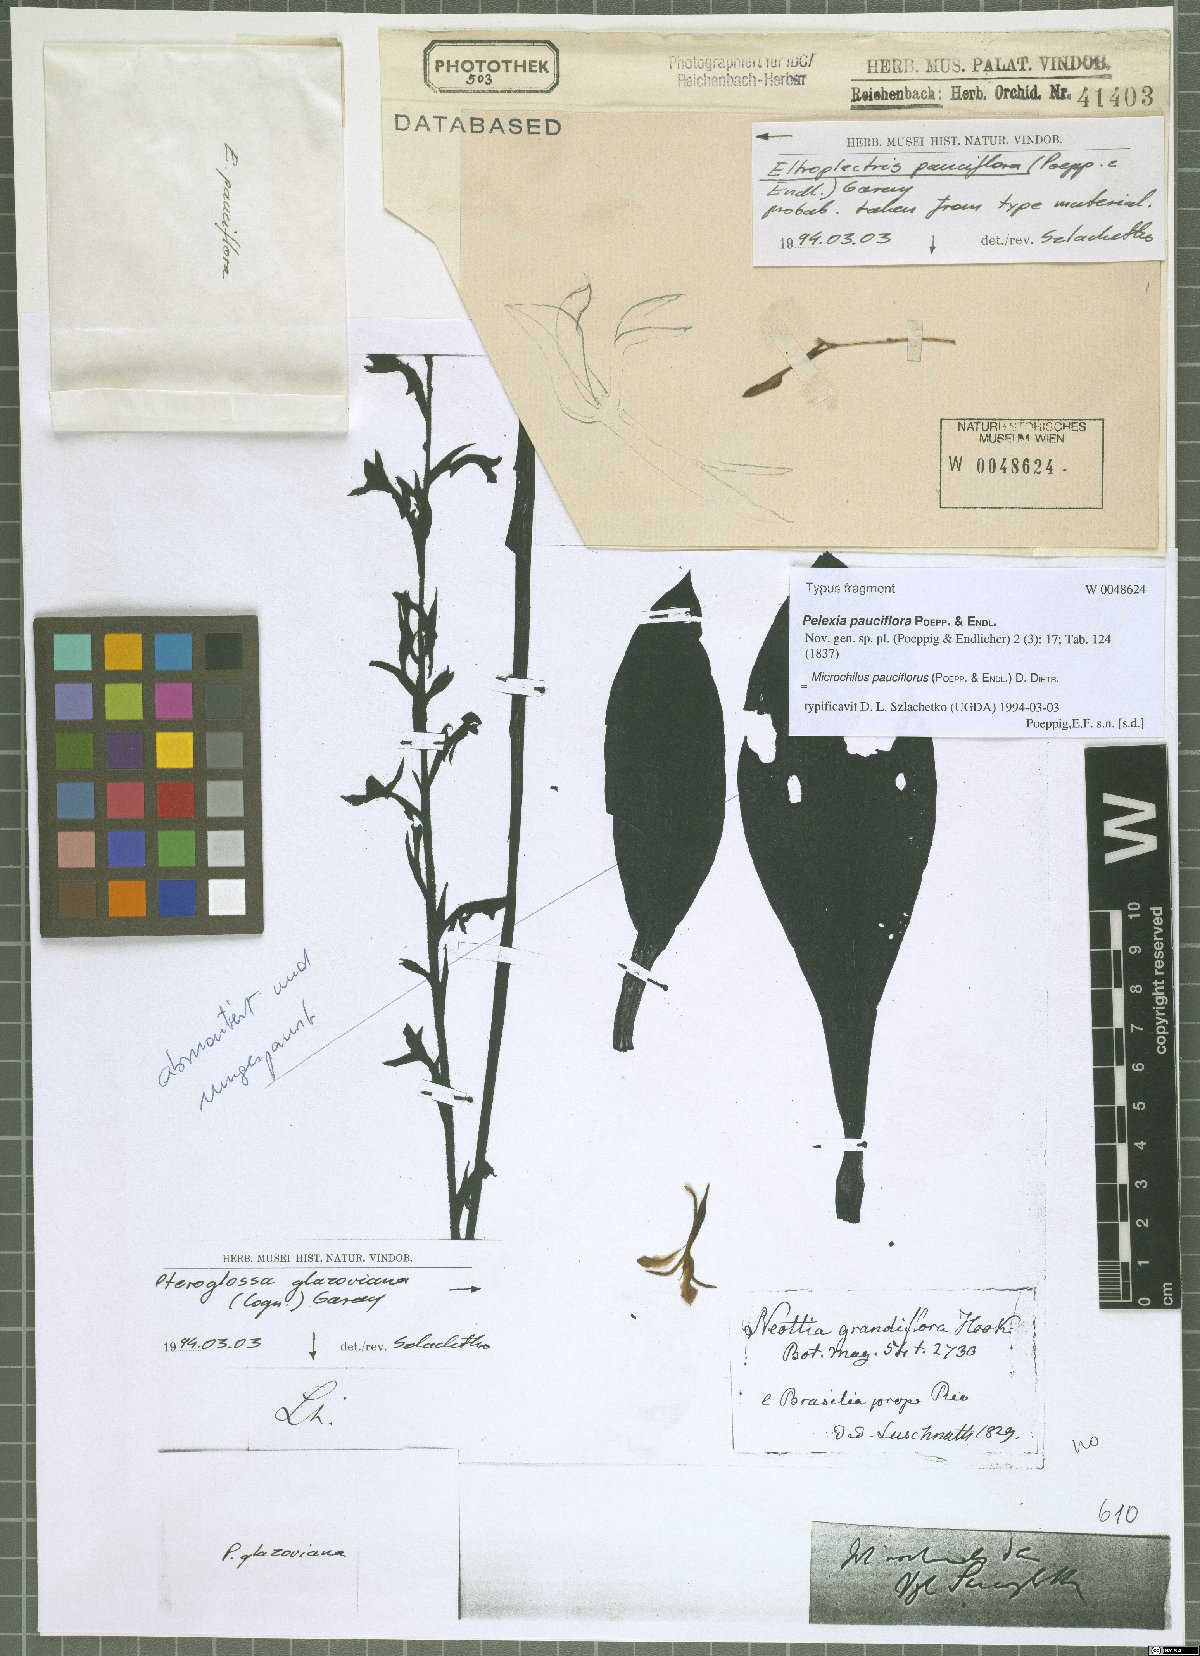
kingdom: Plantae
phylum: Tracheophyta
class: Liliopsida
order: Asparagales
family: Orchidaceae
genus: Microchilus
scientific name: Microchilus pauciflorus
